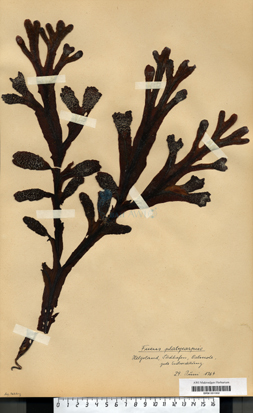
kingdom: Chromista
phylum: Ochrophyta
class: Phaeophyceae
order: Fucales
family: Fucaceae
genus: Fucus
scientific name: Fucus spiralis
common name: Spiral wrack
